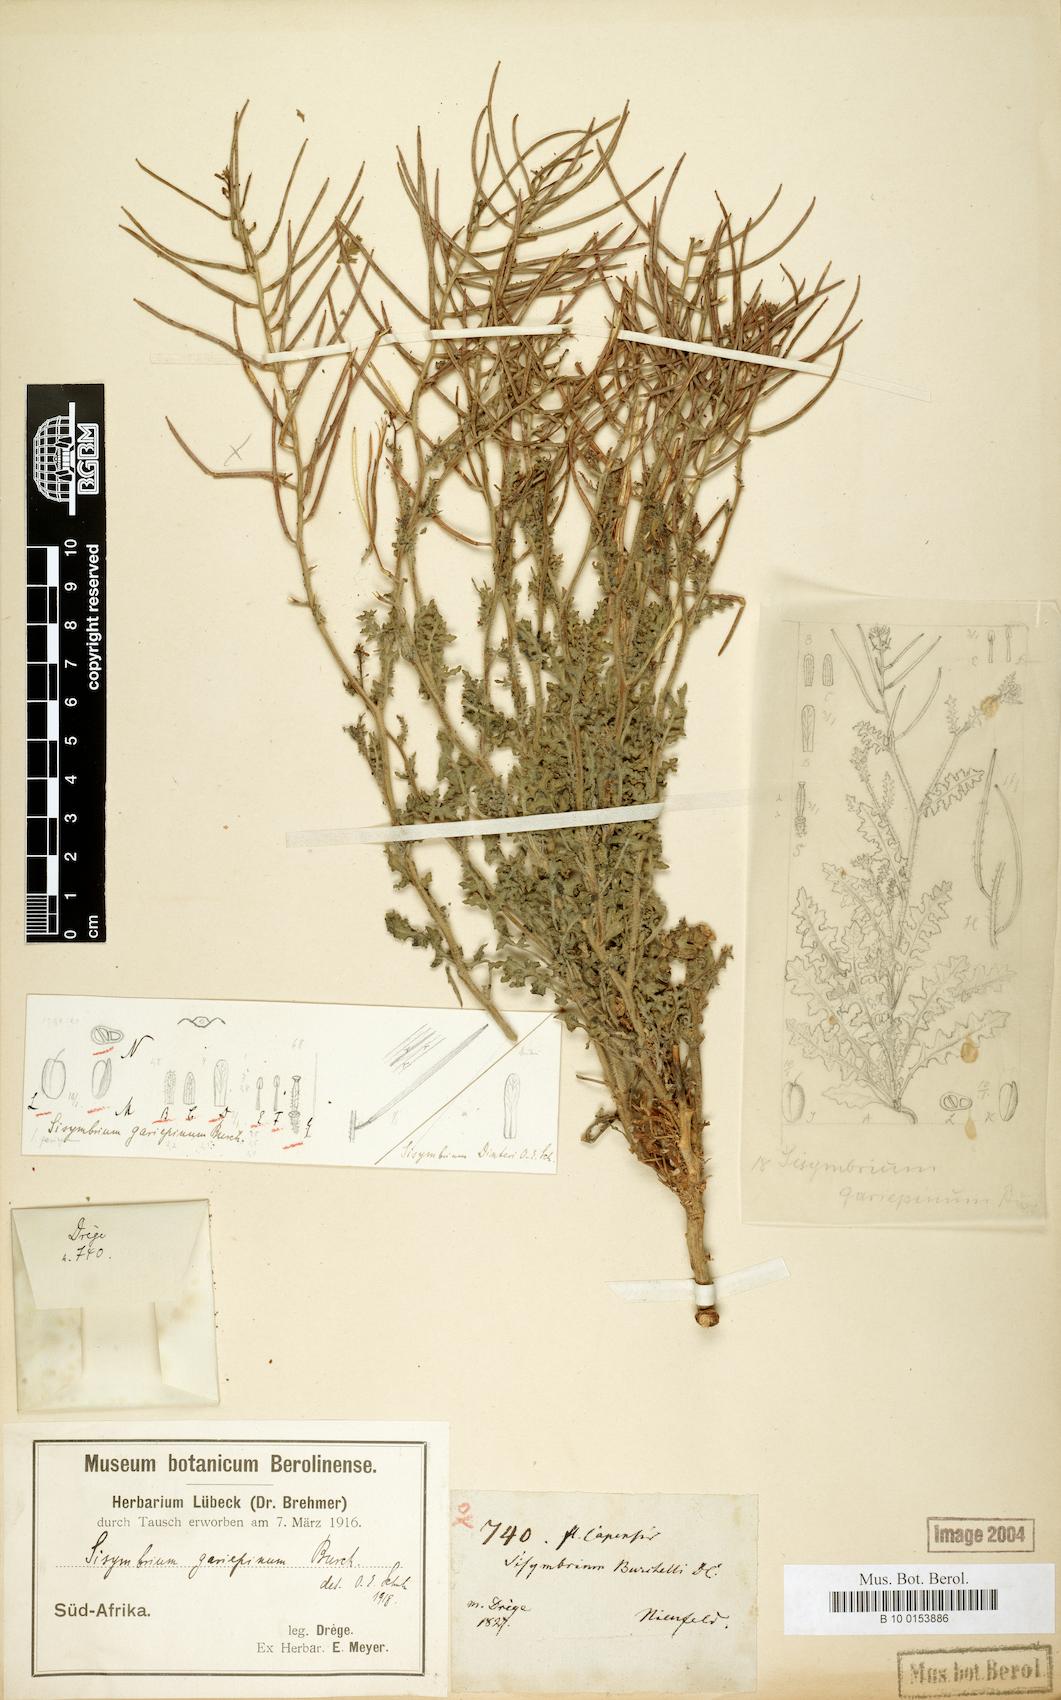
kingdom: Plantae
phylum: Tracheophyta
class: Magnoliopsida
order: Brassicales
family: Brassicaceae
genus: Sisymbrium
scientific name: Sisymbrium burchellii
